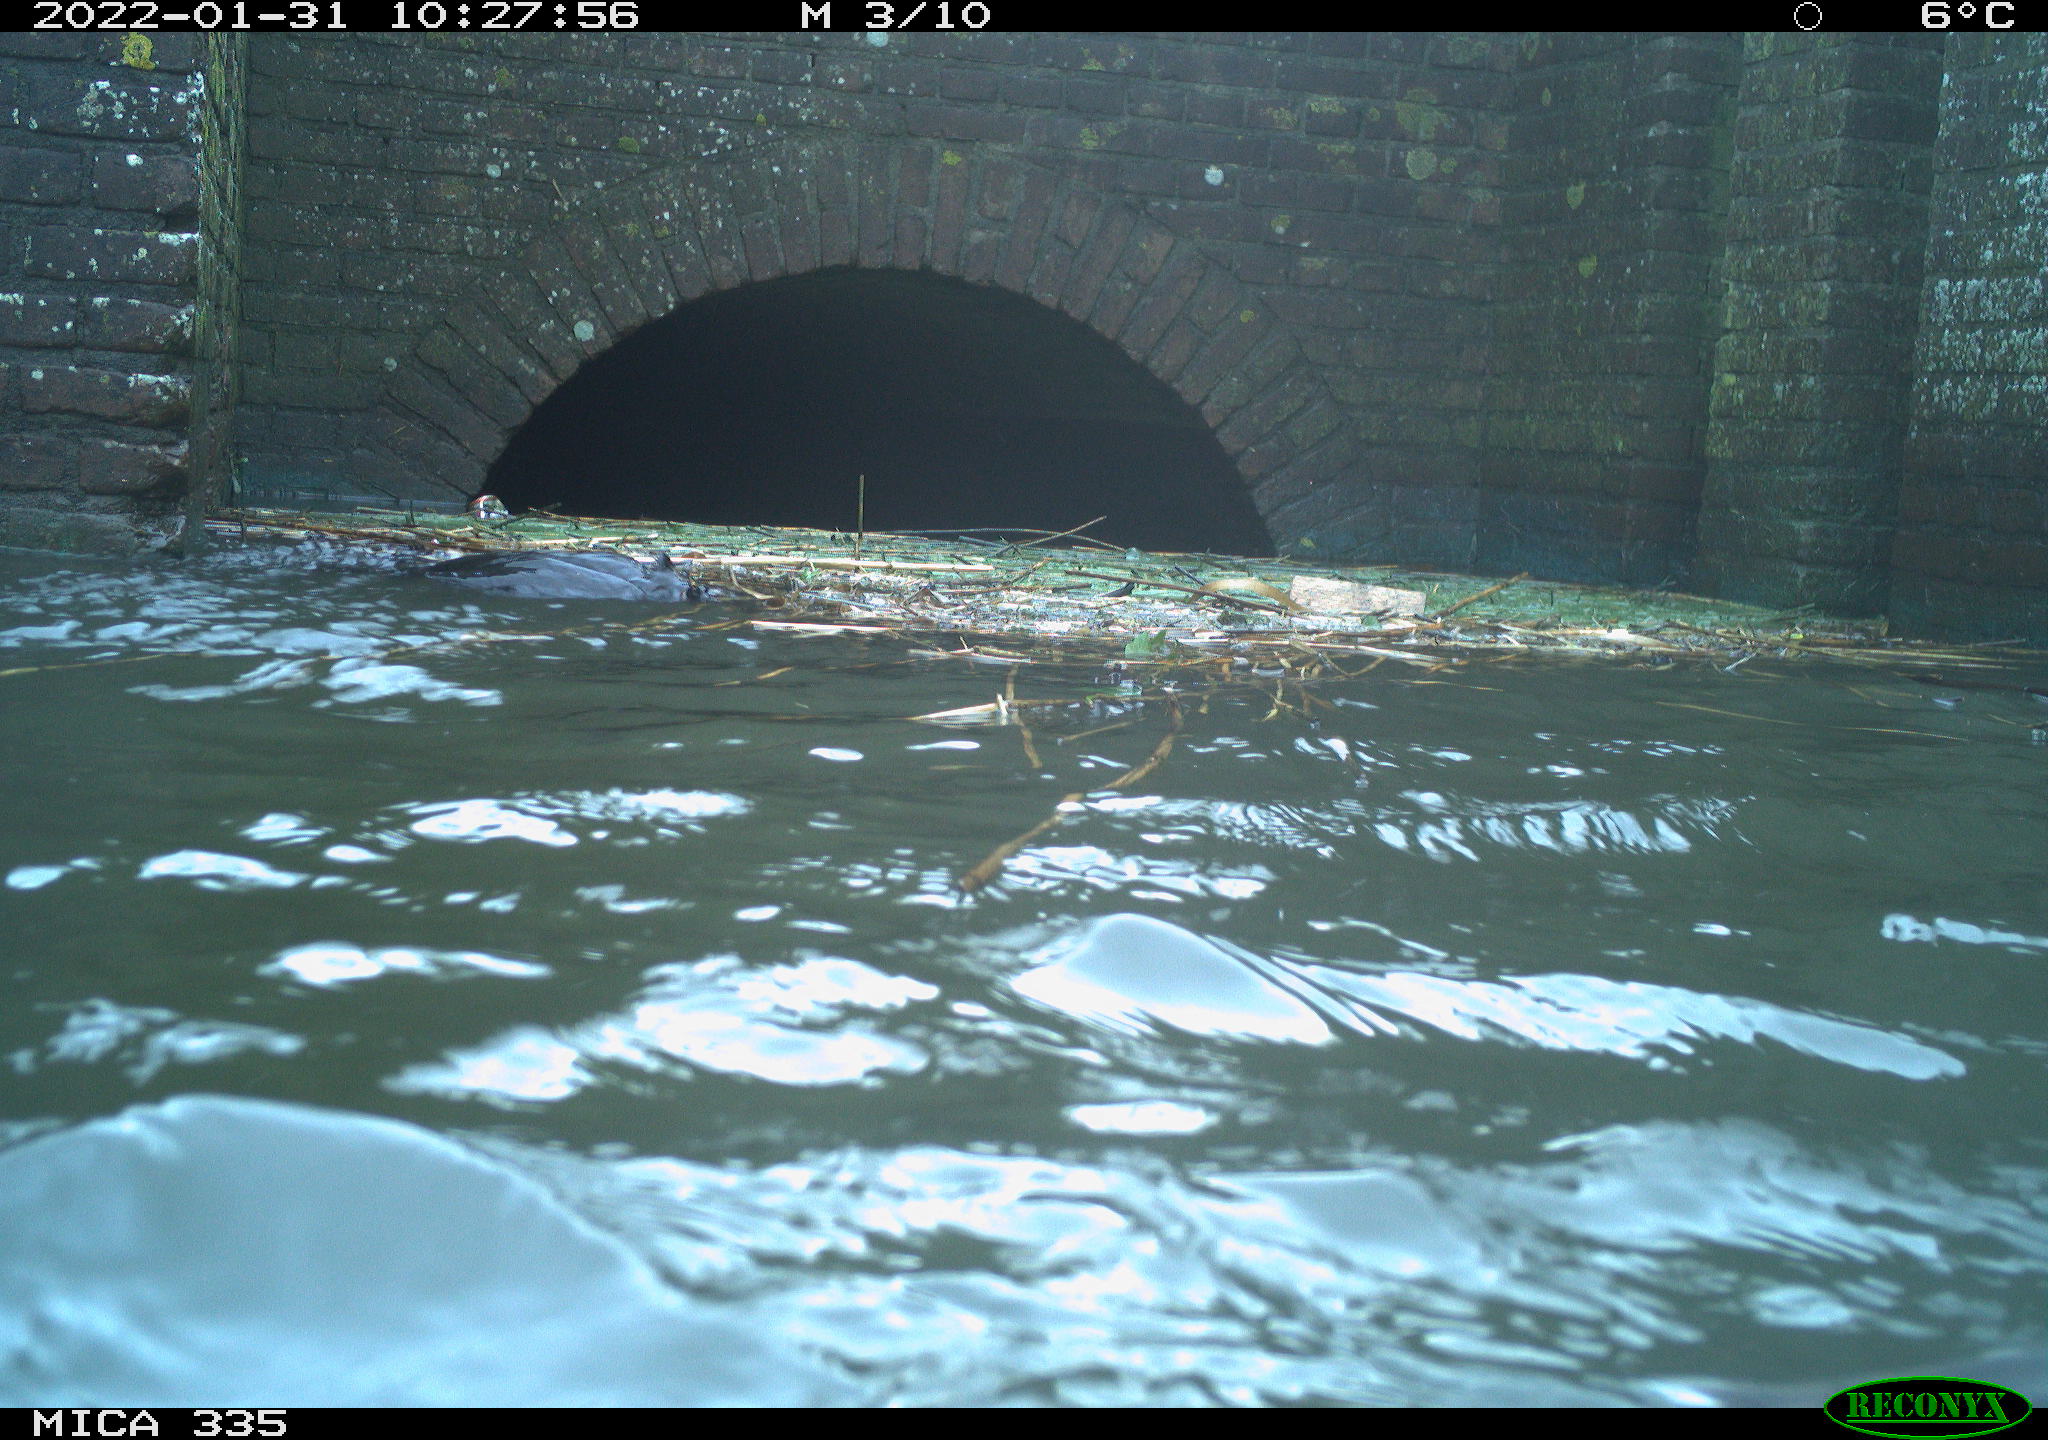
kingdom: Animalia
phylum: Chordata
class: Aves
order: Podicipediformes
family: Podicipedidae
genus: Podiceps
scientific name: Podiceps cristatus
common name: Great crested grebe
